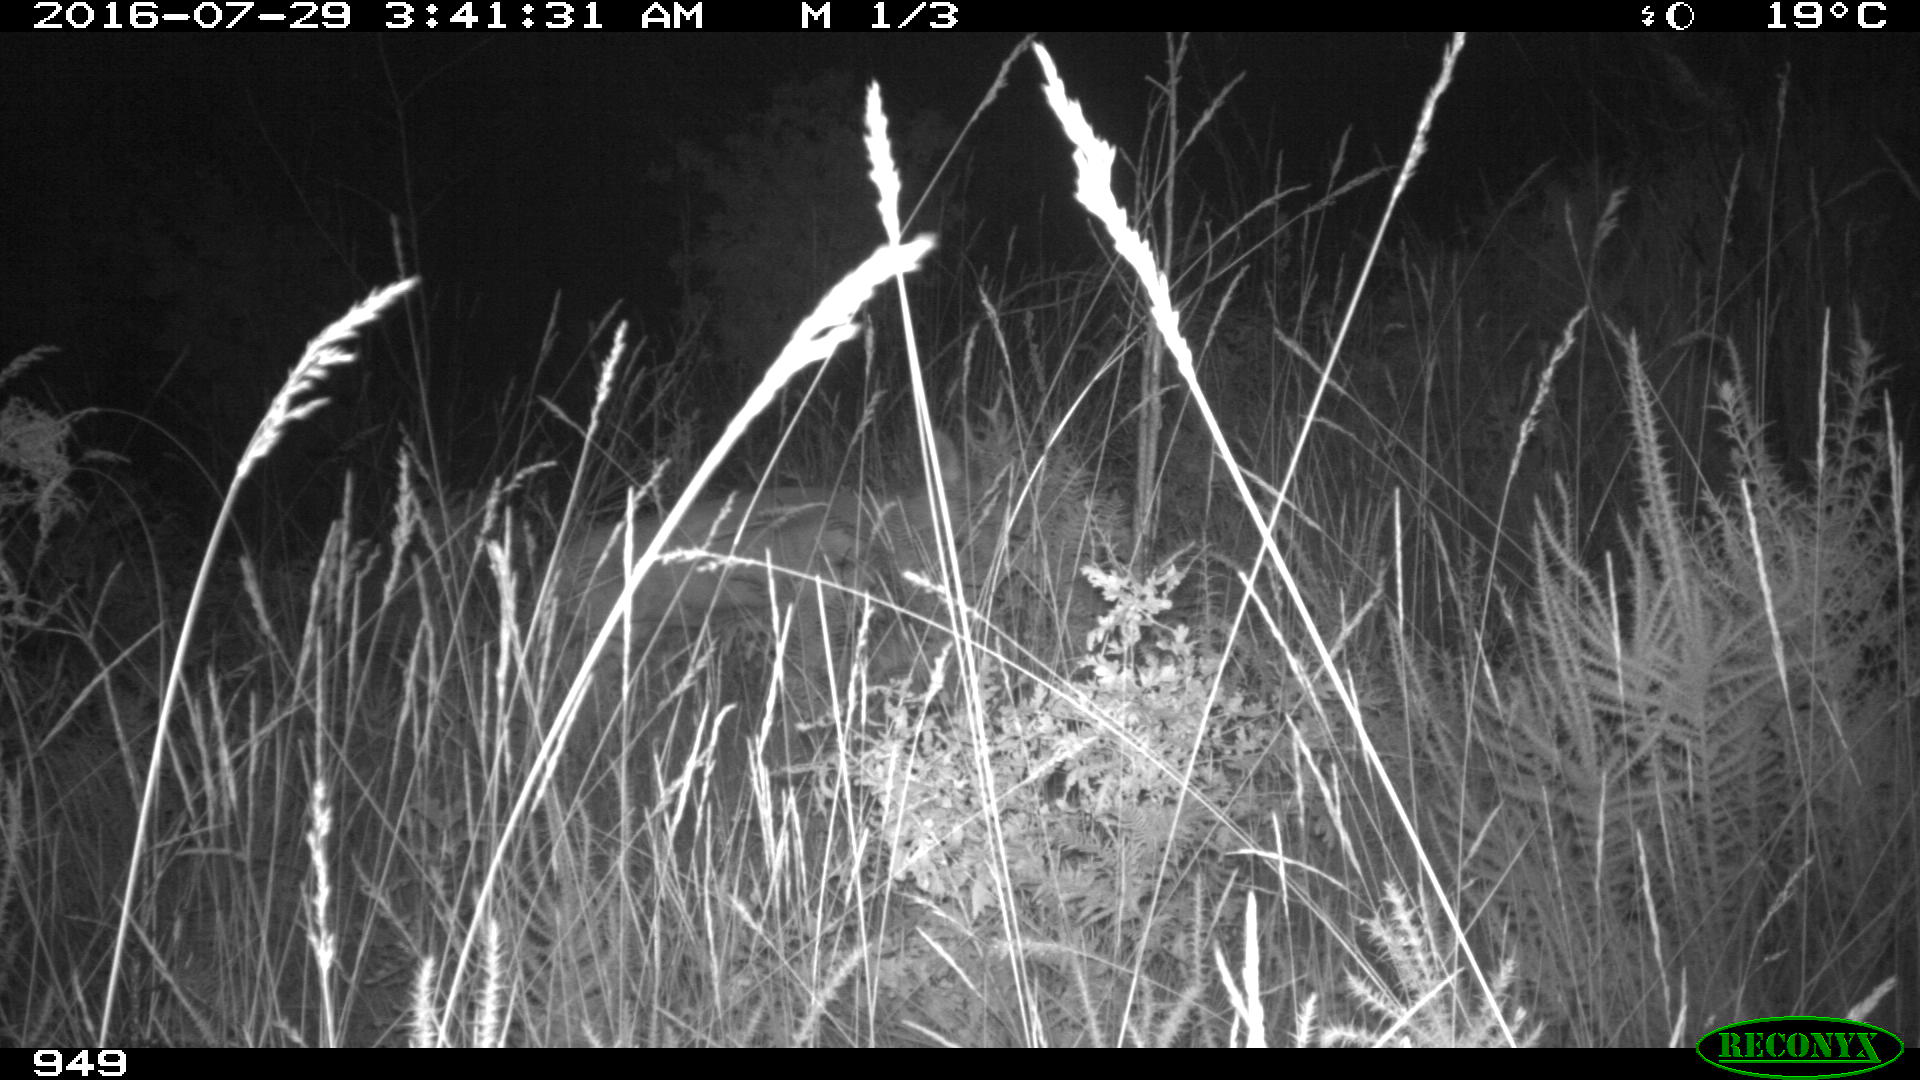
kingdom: Animalia
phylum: Chordata
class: Mammalia
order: Artiodactyla
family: Cervidae
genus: Capreolus
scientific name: Capreolus capreolus
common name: Western roe deer
